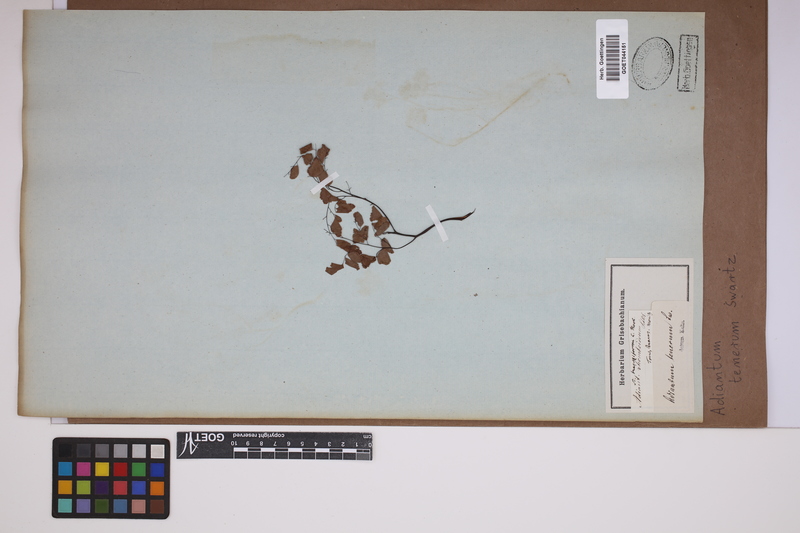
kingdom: Plantae
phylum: Tracheophyta
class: Polypodiopsida
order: Polypodiales
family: Pteridaceae
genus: Adiantum
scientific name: Adiantum tenerum
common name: Fan maidenhair
